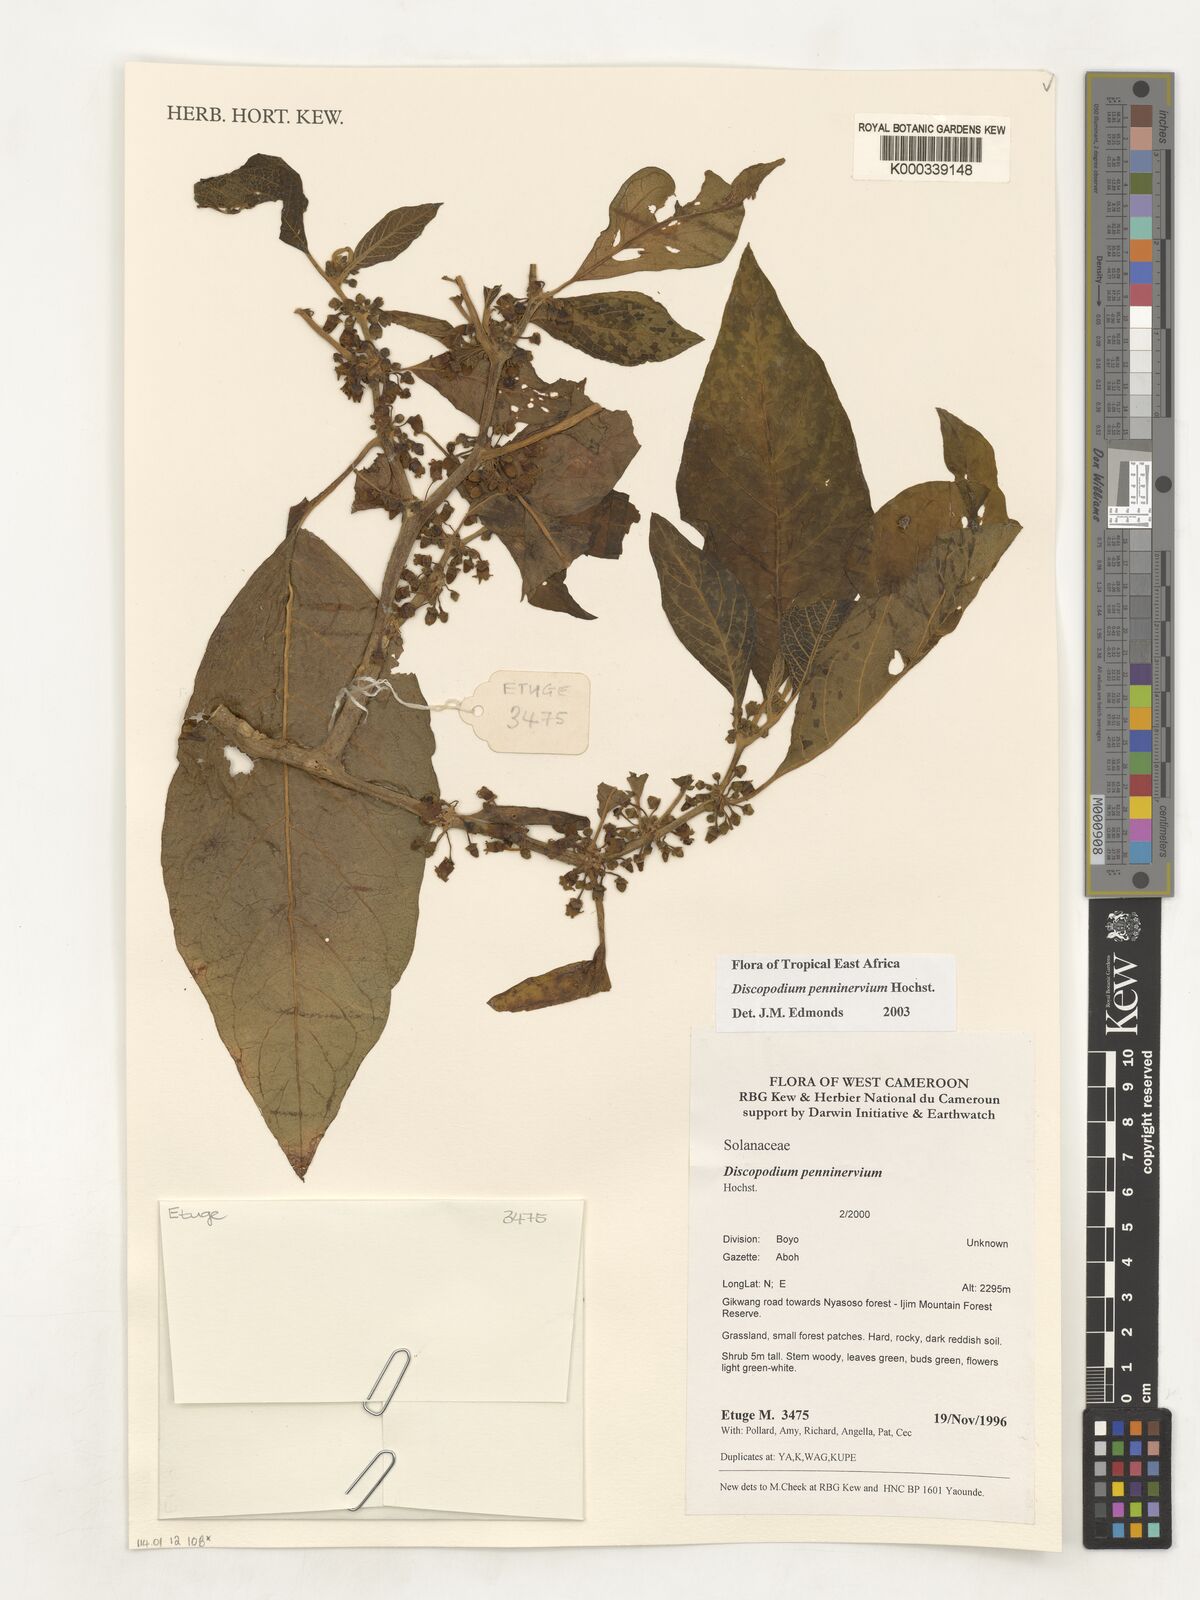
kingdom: Plantae
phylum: Tracheophyta
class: Magnoliopsida
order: Solanales
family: Solanaceae
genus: Discopodium
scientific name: Discopodium penninervium
